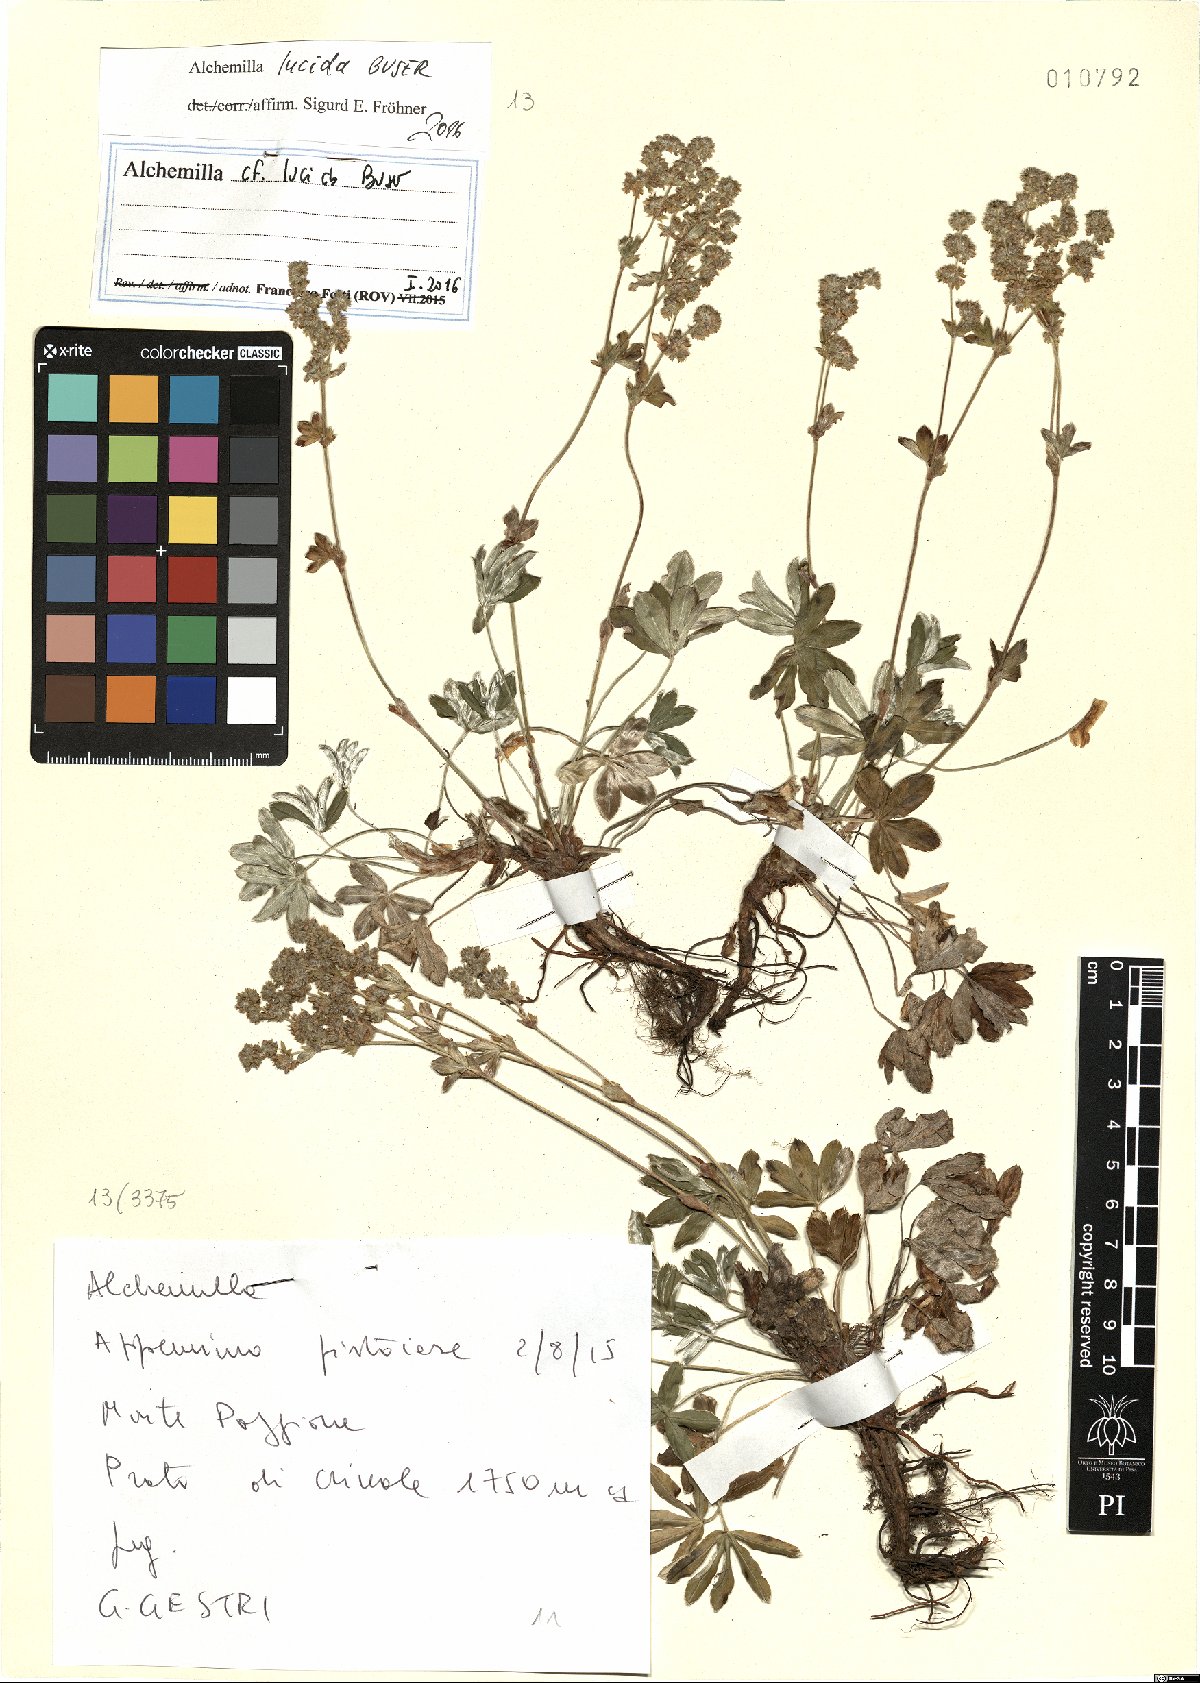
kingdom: Plantae
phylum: Tracheophyta
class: Magnoliopsida
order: Rosales
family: Rosaceae
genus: Alchemilla
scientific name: Alchemilla lucida
